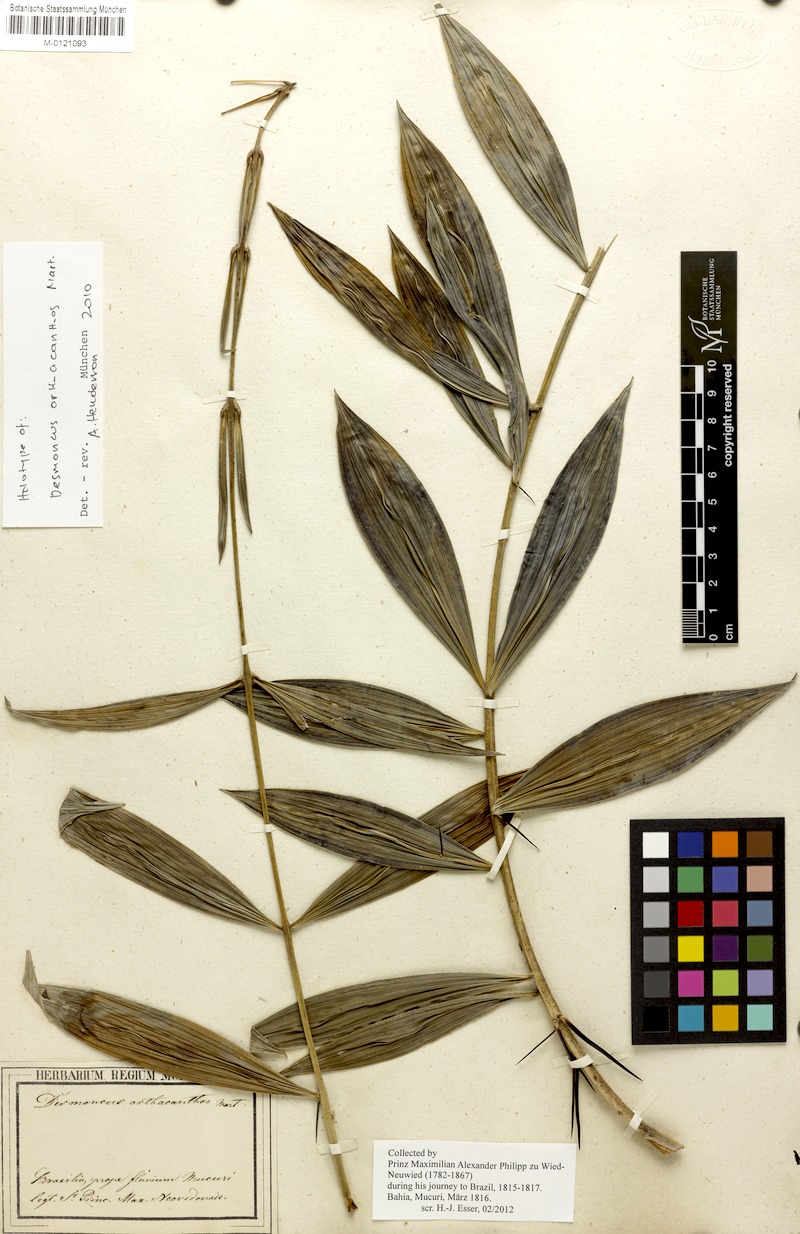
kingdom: Plantae
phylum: Tracheophyta
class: Liliopsida
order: Arecales
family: Arecaceae
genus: Desmoncus
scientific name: Desmoncus orthacanthos
